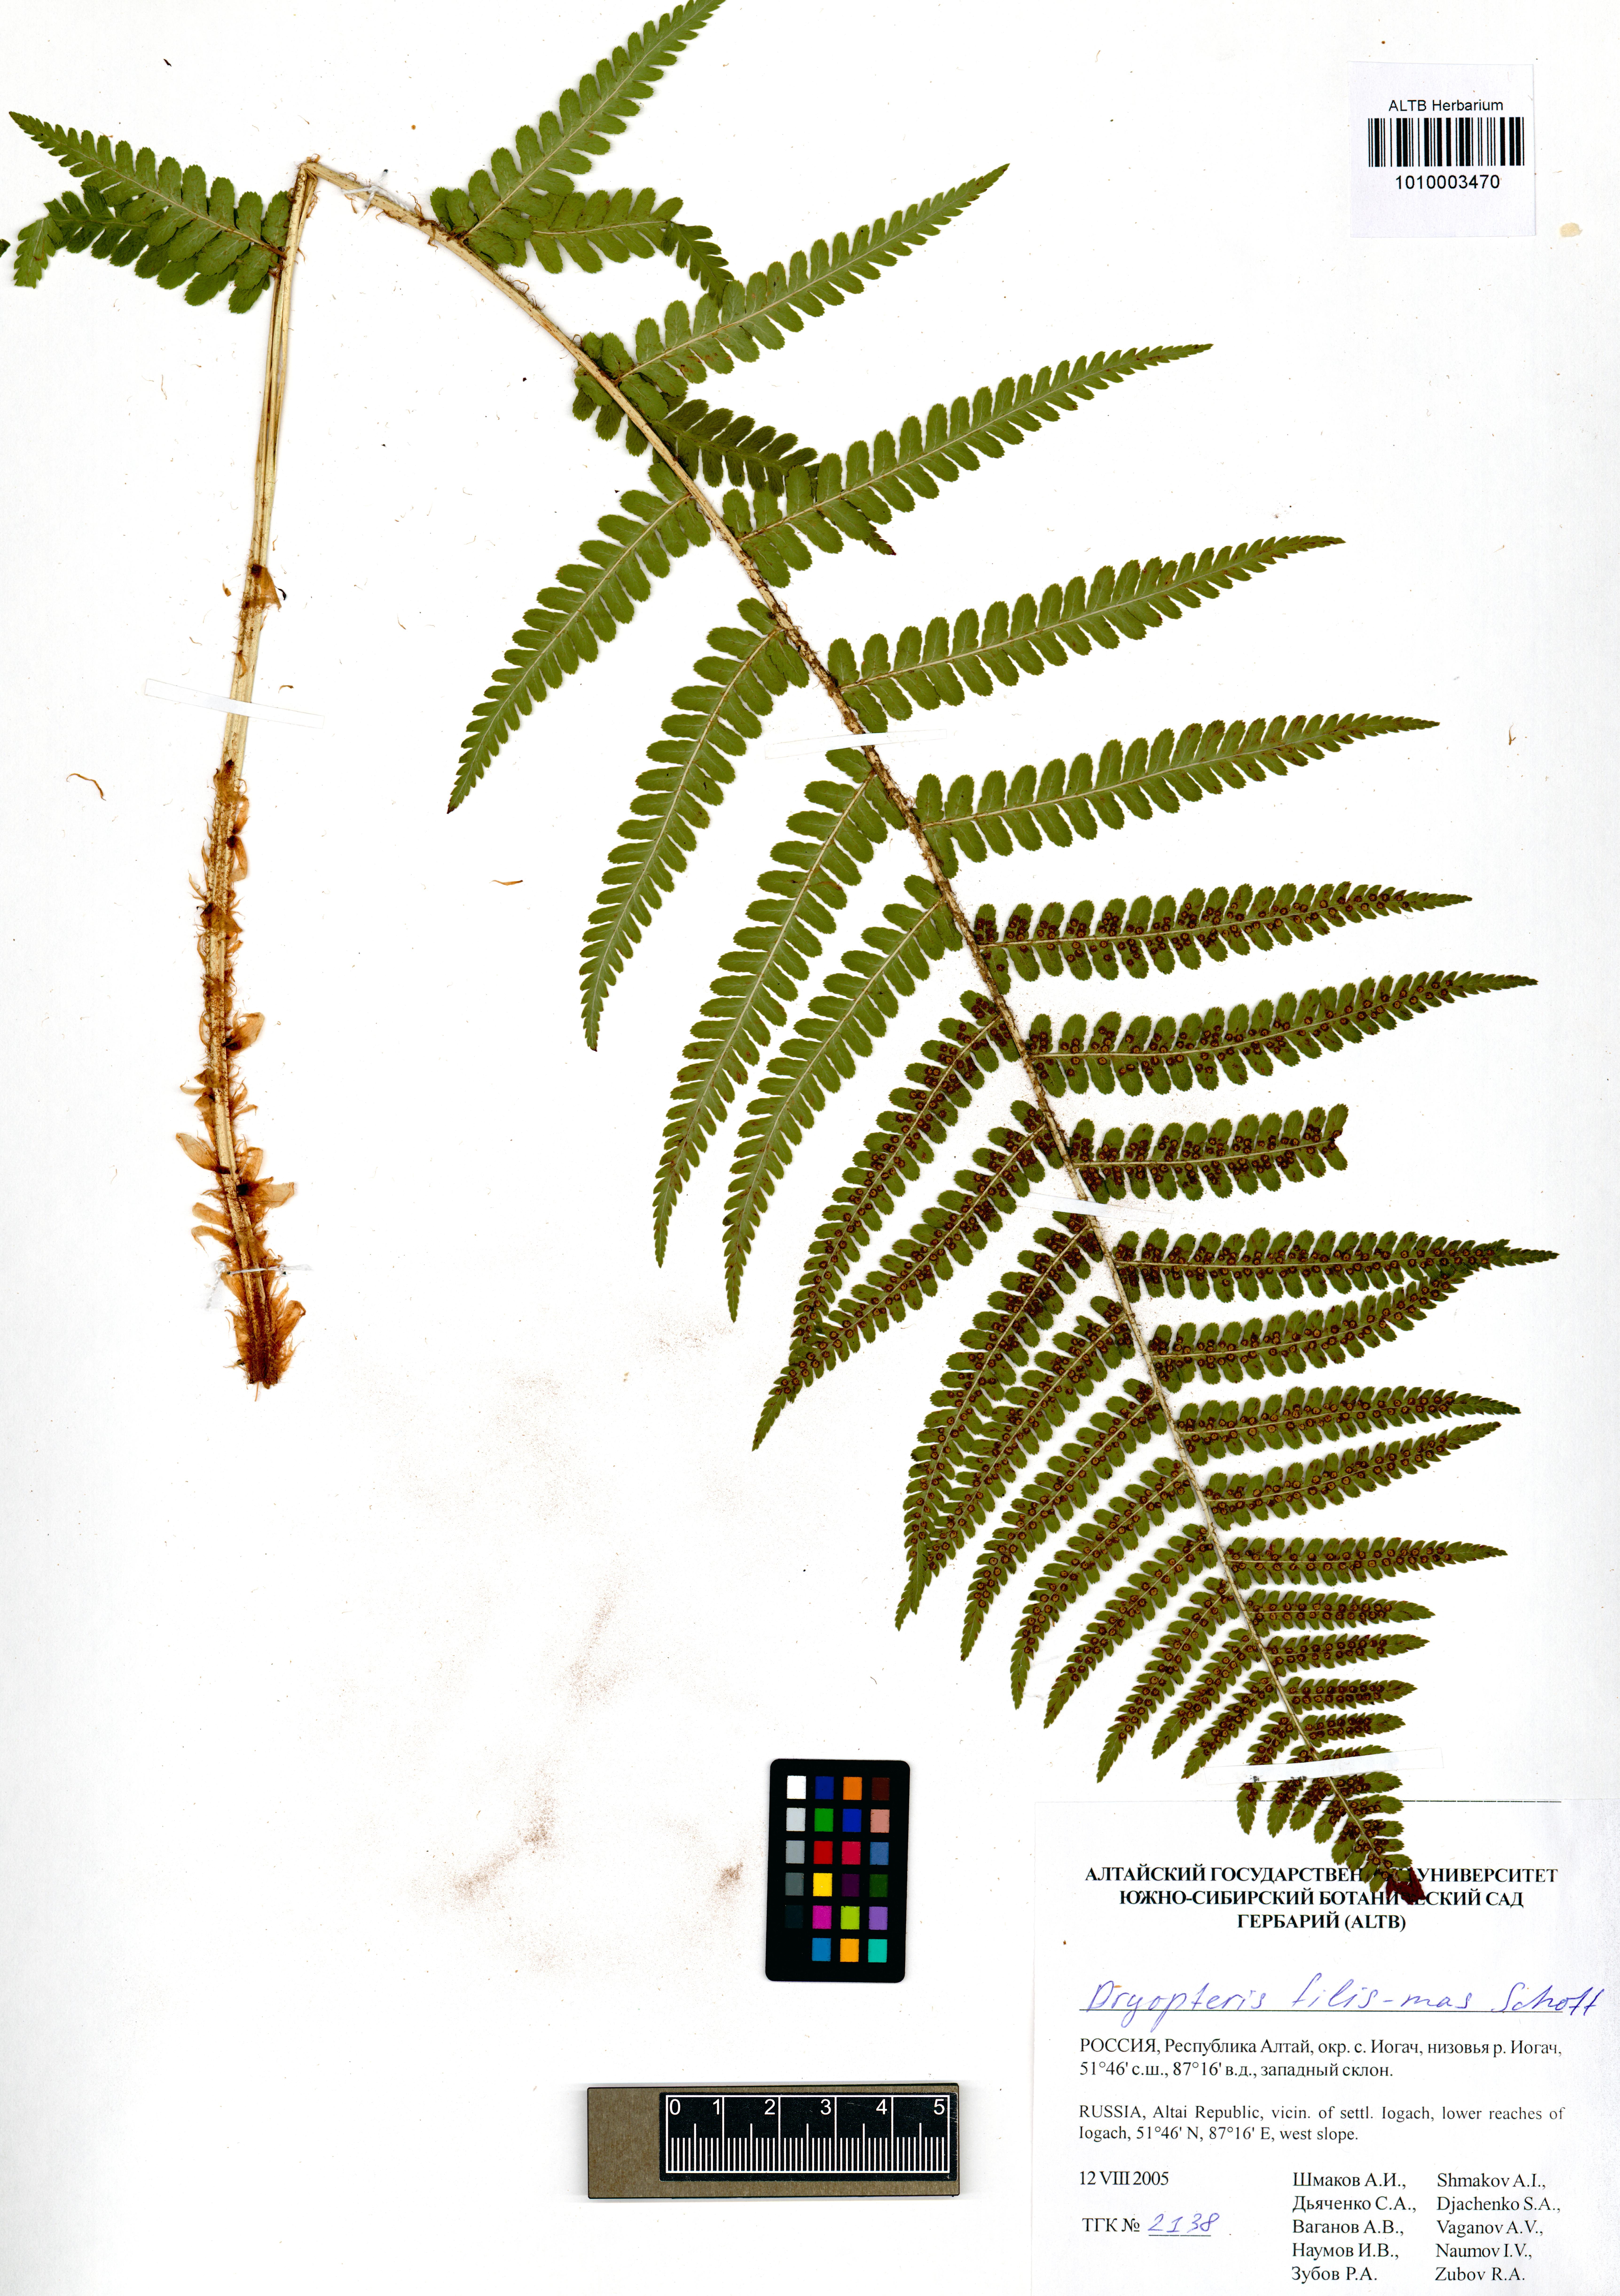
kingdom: Plantae
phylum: Tracheophyta
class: Polypodiopsida
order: Polypodiales
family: Dryopteridaceae
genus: Dryopteris
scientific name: Dryopteris filix-mas
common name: Male fern
